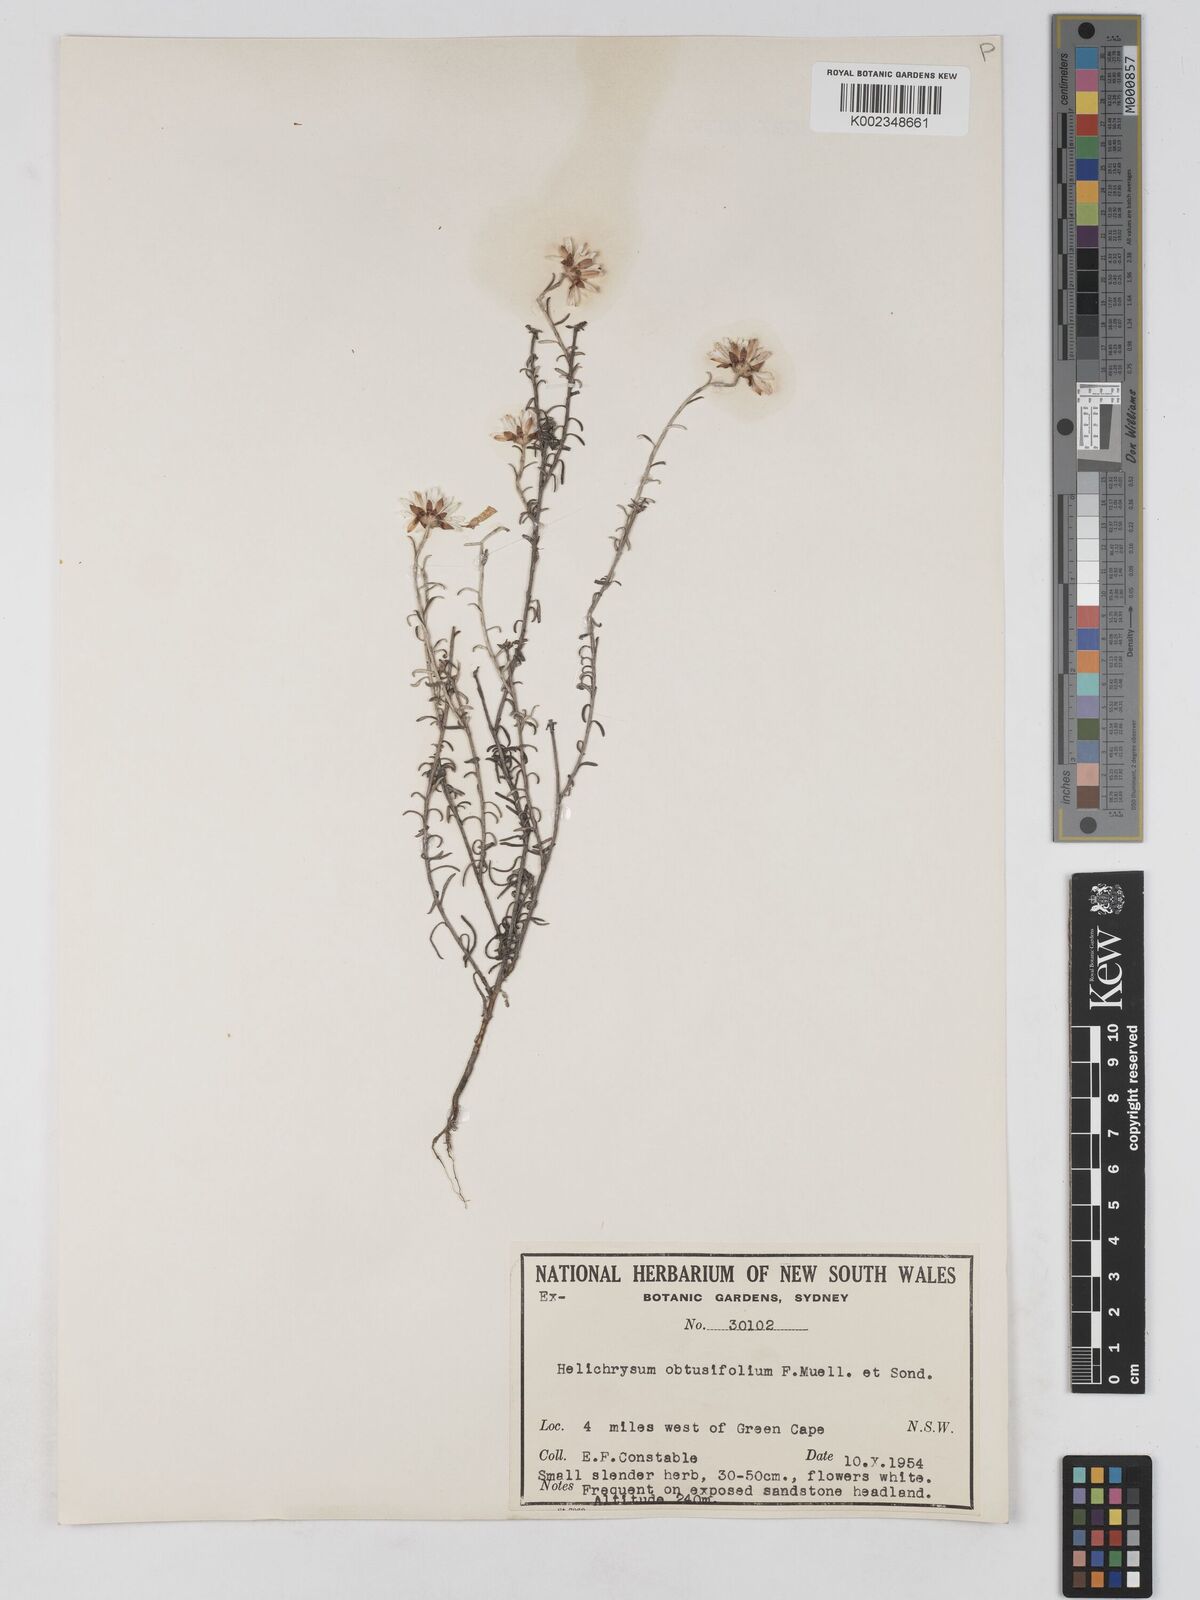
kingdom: Plantae
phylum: Tracheophyta
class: Magnoliopsida
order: Asterales
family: Asteraceae
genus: Argentipallium
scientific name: Argentipallium obtusifolium
